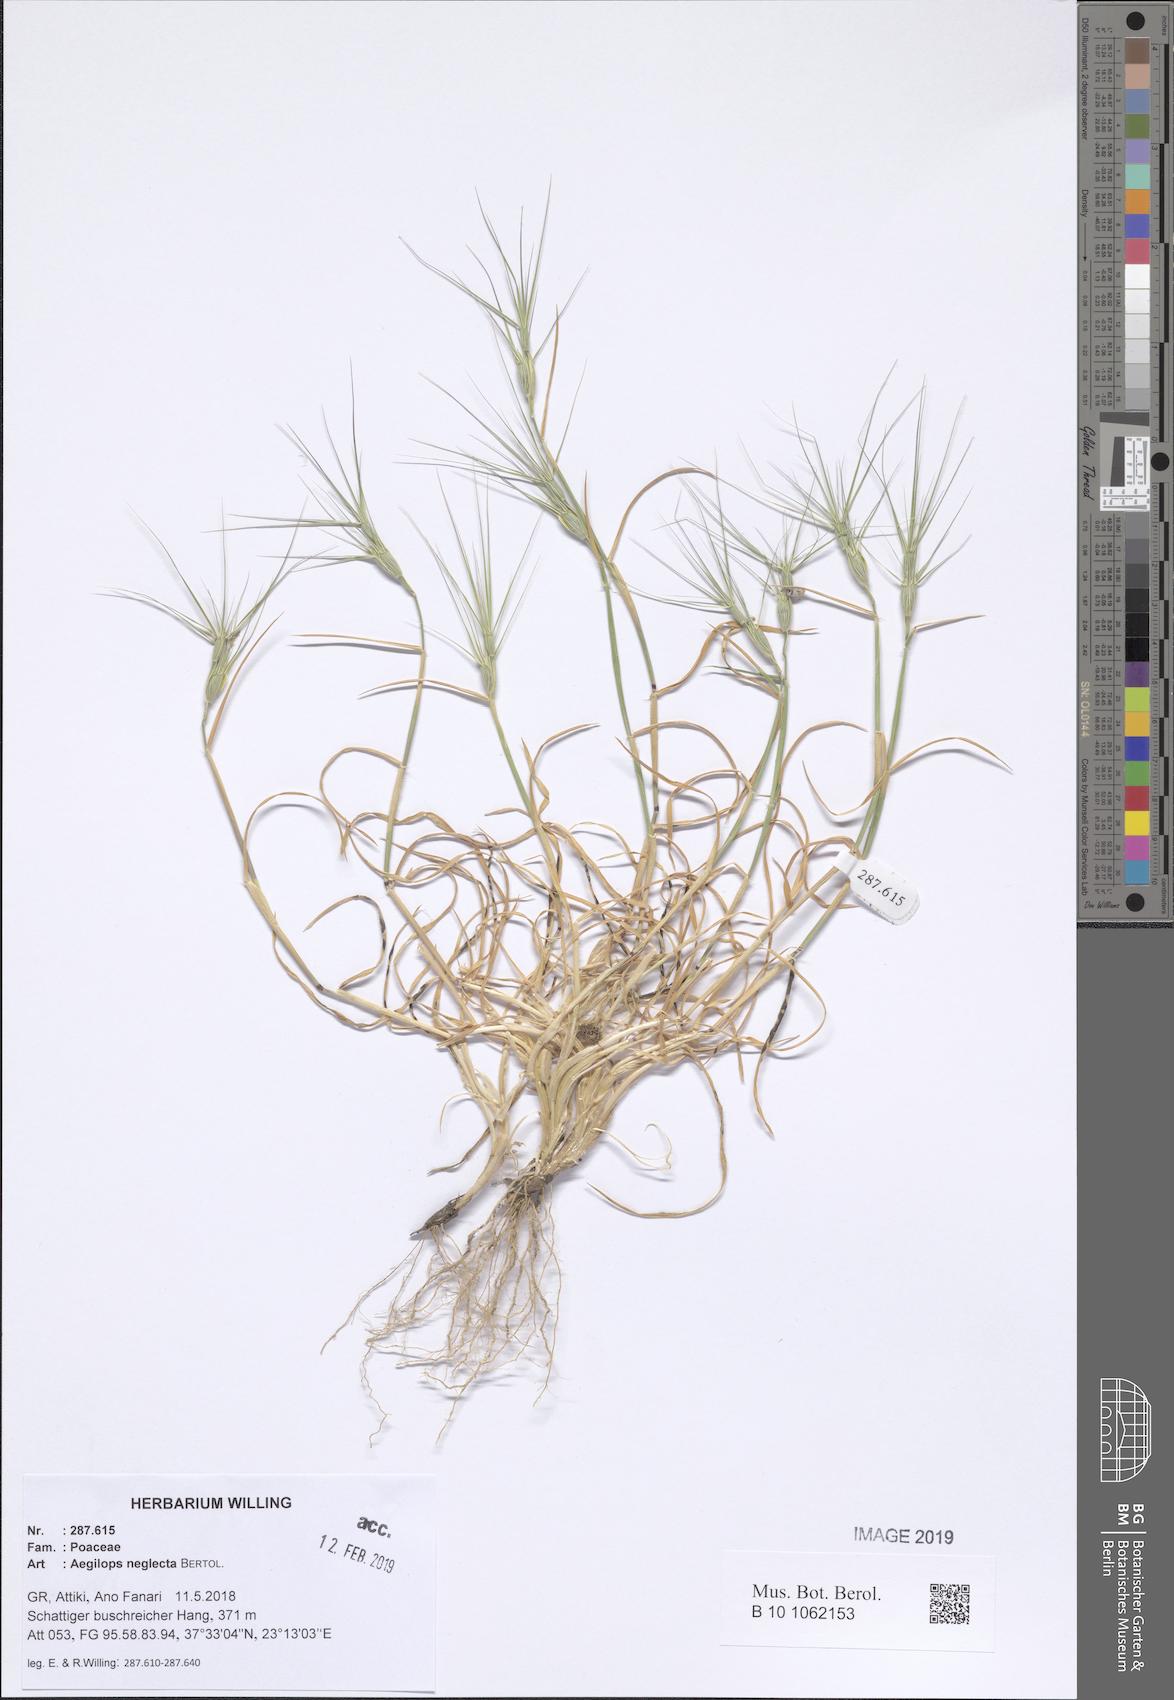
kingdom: Plantae
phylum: Tracheophyta
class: Liliopsida
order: Poales
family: Poaceae
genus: Aegilops
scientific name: Aegilops neglecta
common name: Three-awn goat grass
